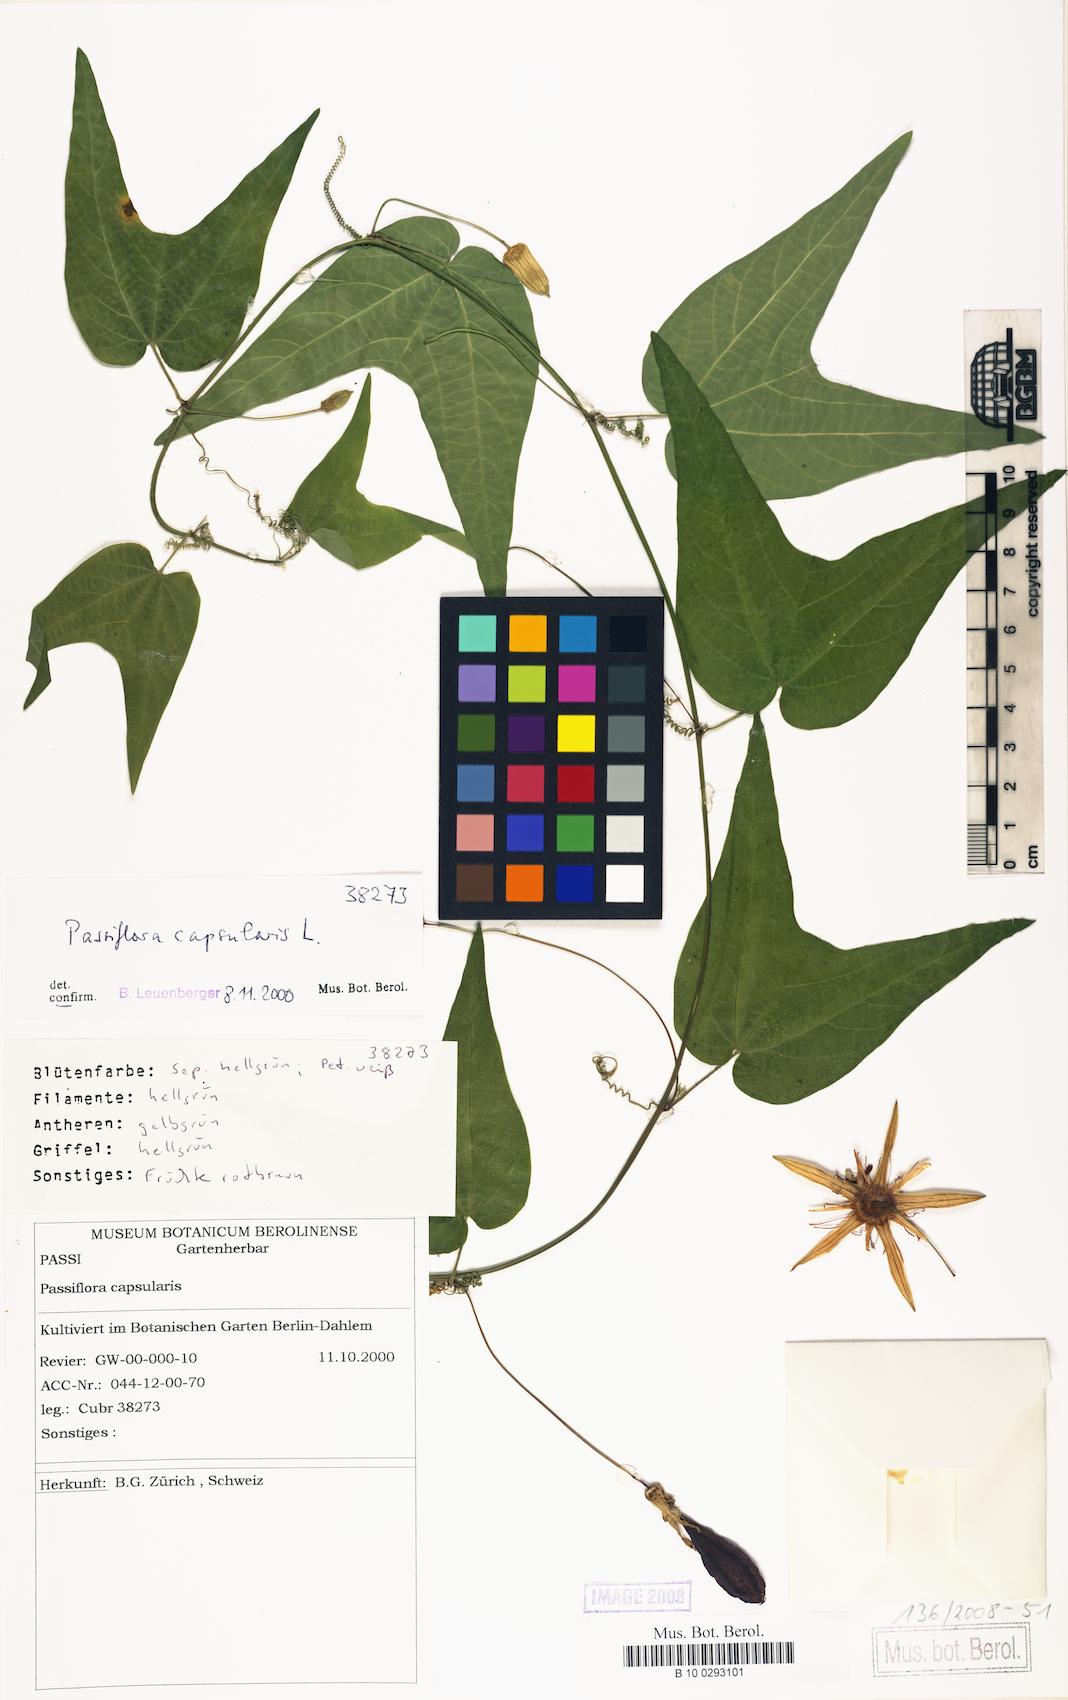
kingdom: Plantae
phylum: Tracheophyta
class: Magnoliopsida
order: Malpighiales
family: Passifloraceae
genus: Passiflora
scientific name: Passiflora capsularis
